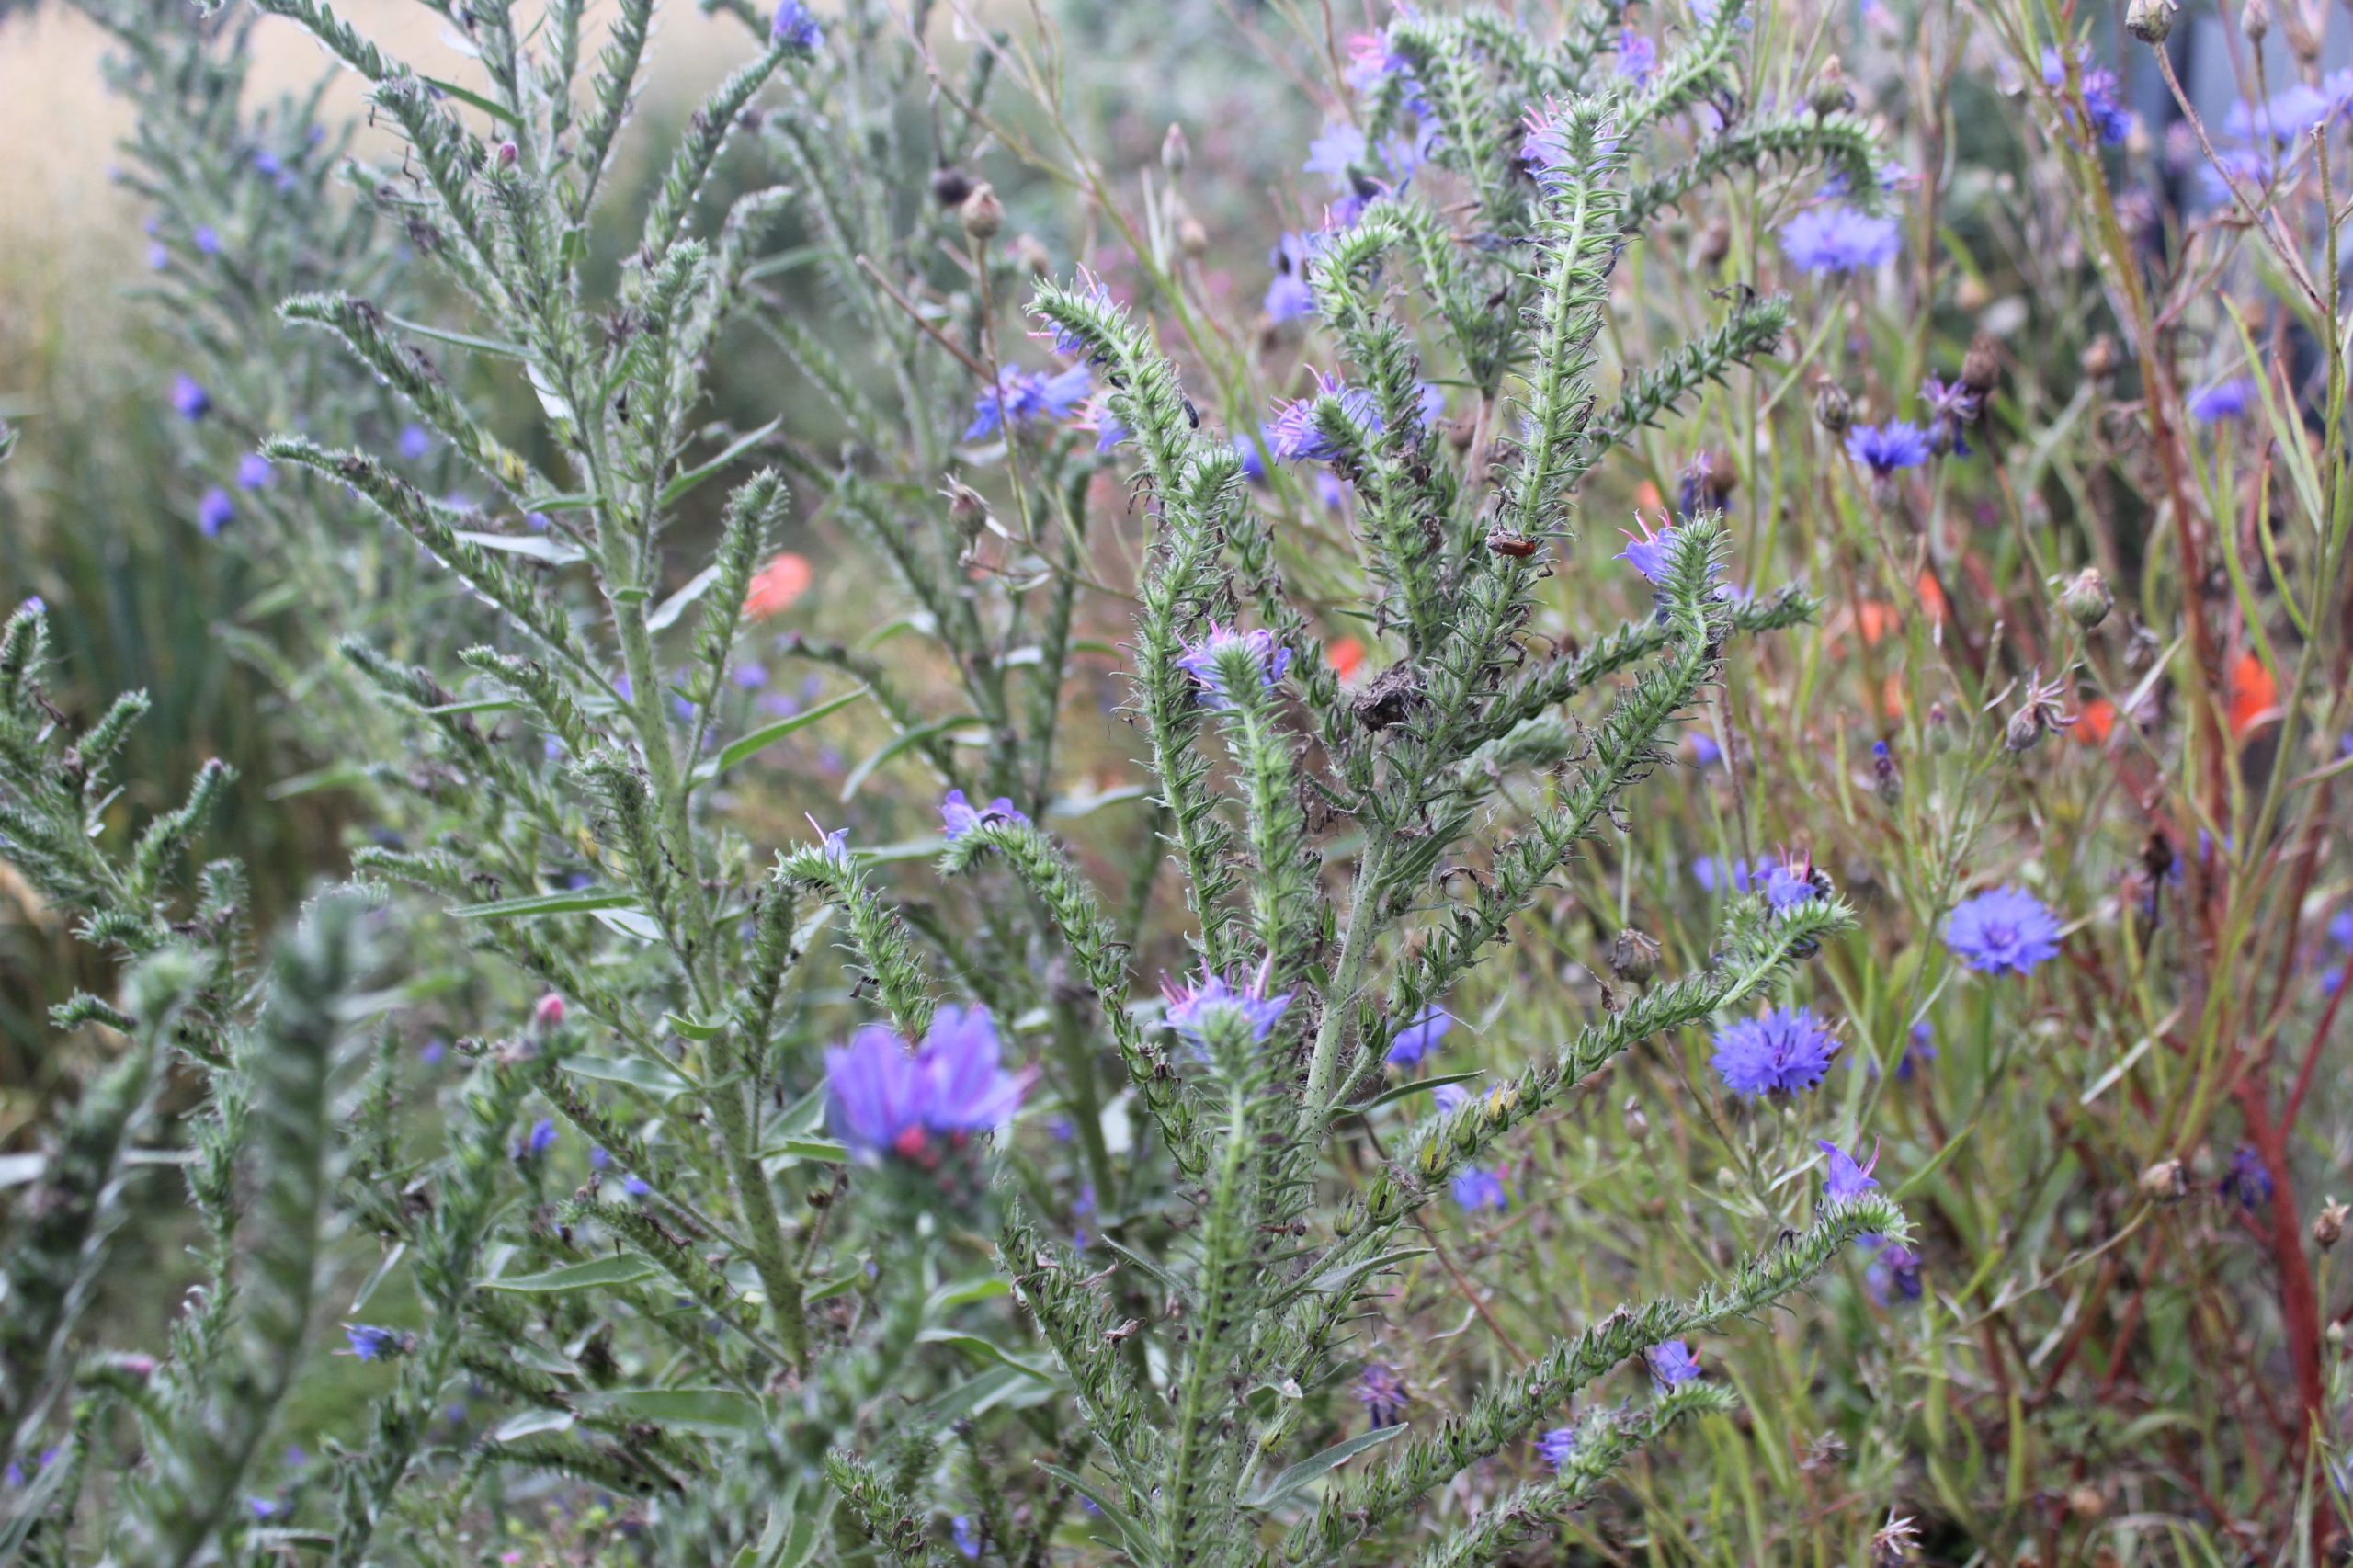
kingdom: Plantae
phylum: Tracheophyta
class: Magnoliopsida
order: Boraginales
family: Boraginaceae
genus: Echium
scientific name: Echium vulgare
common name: Slangehoved
